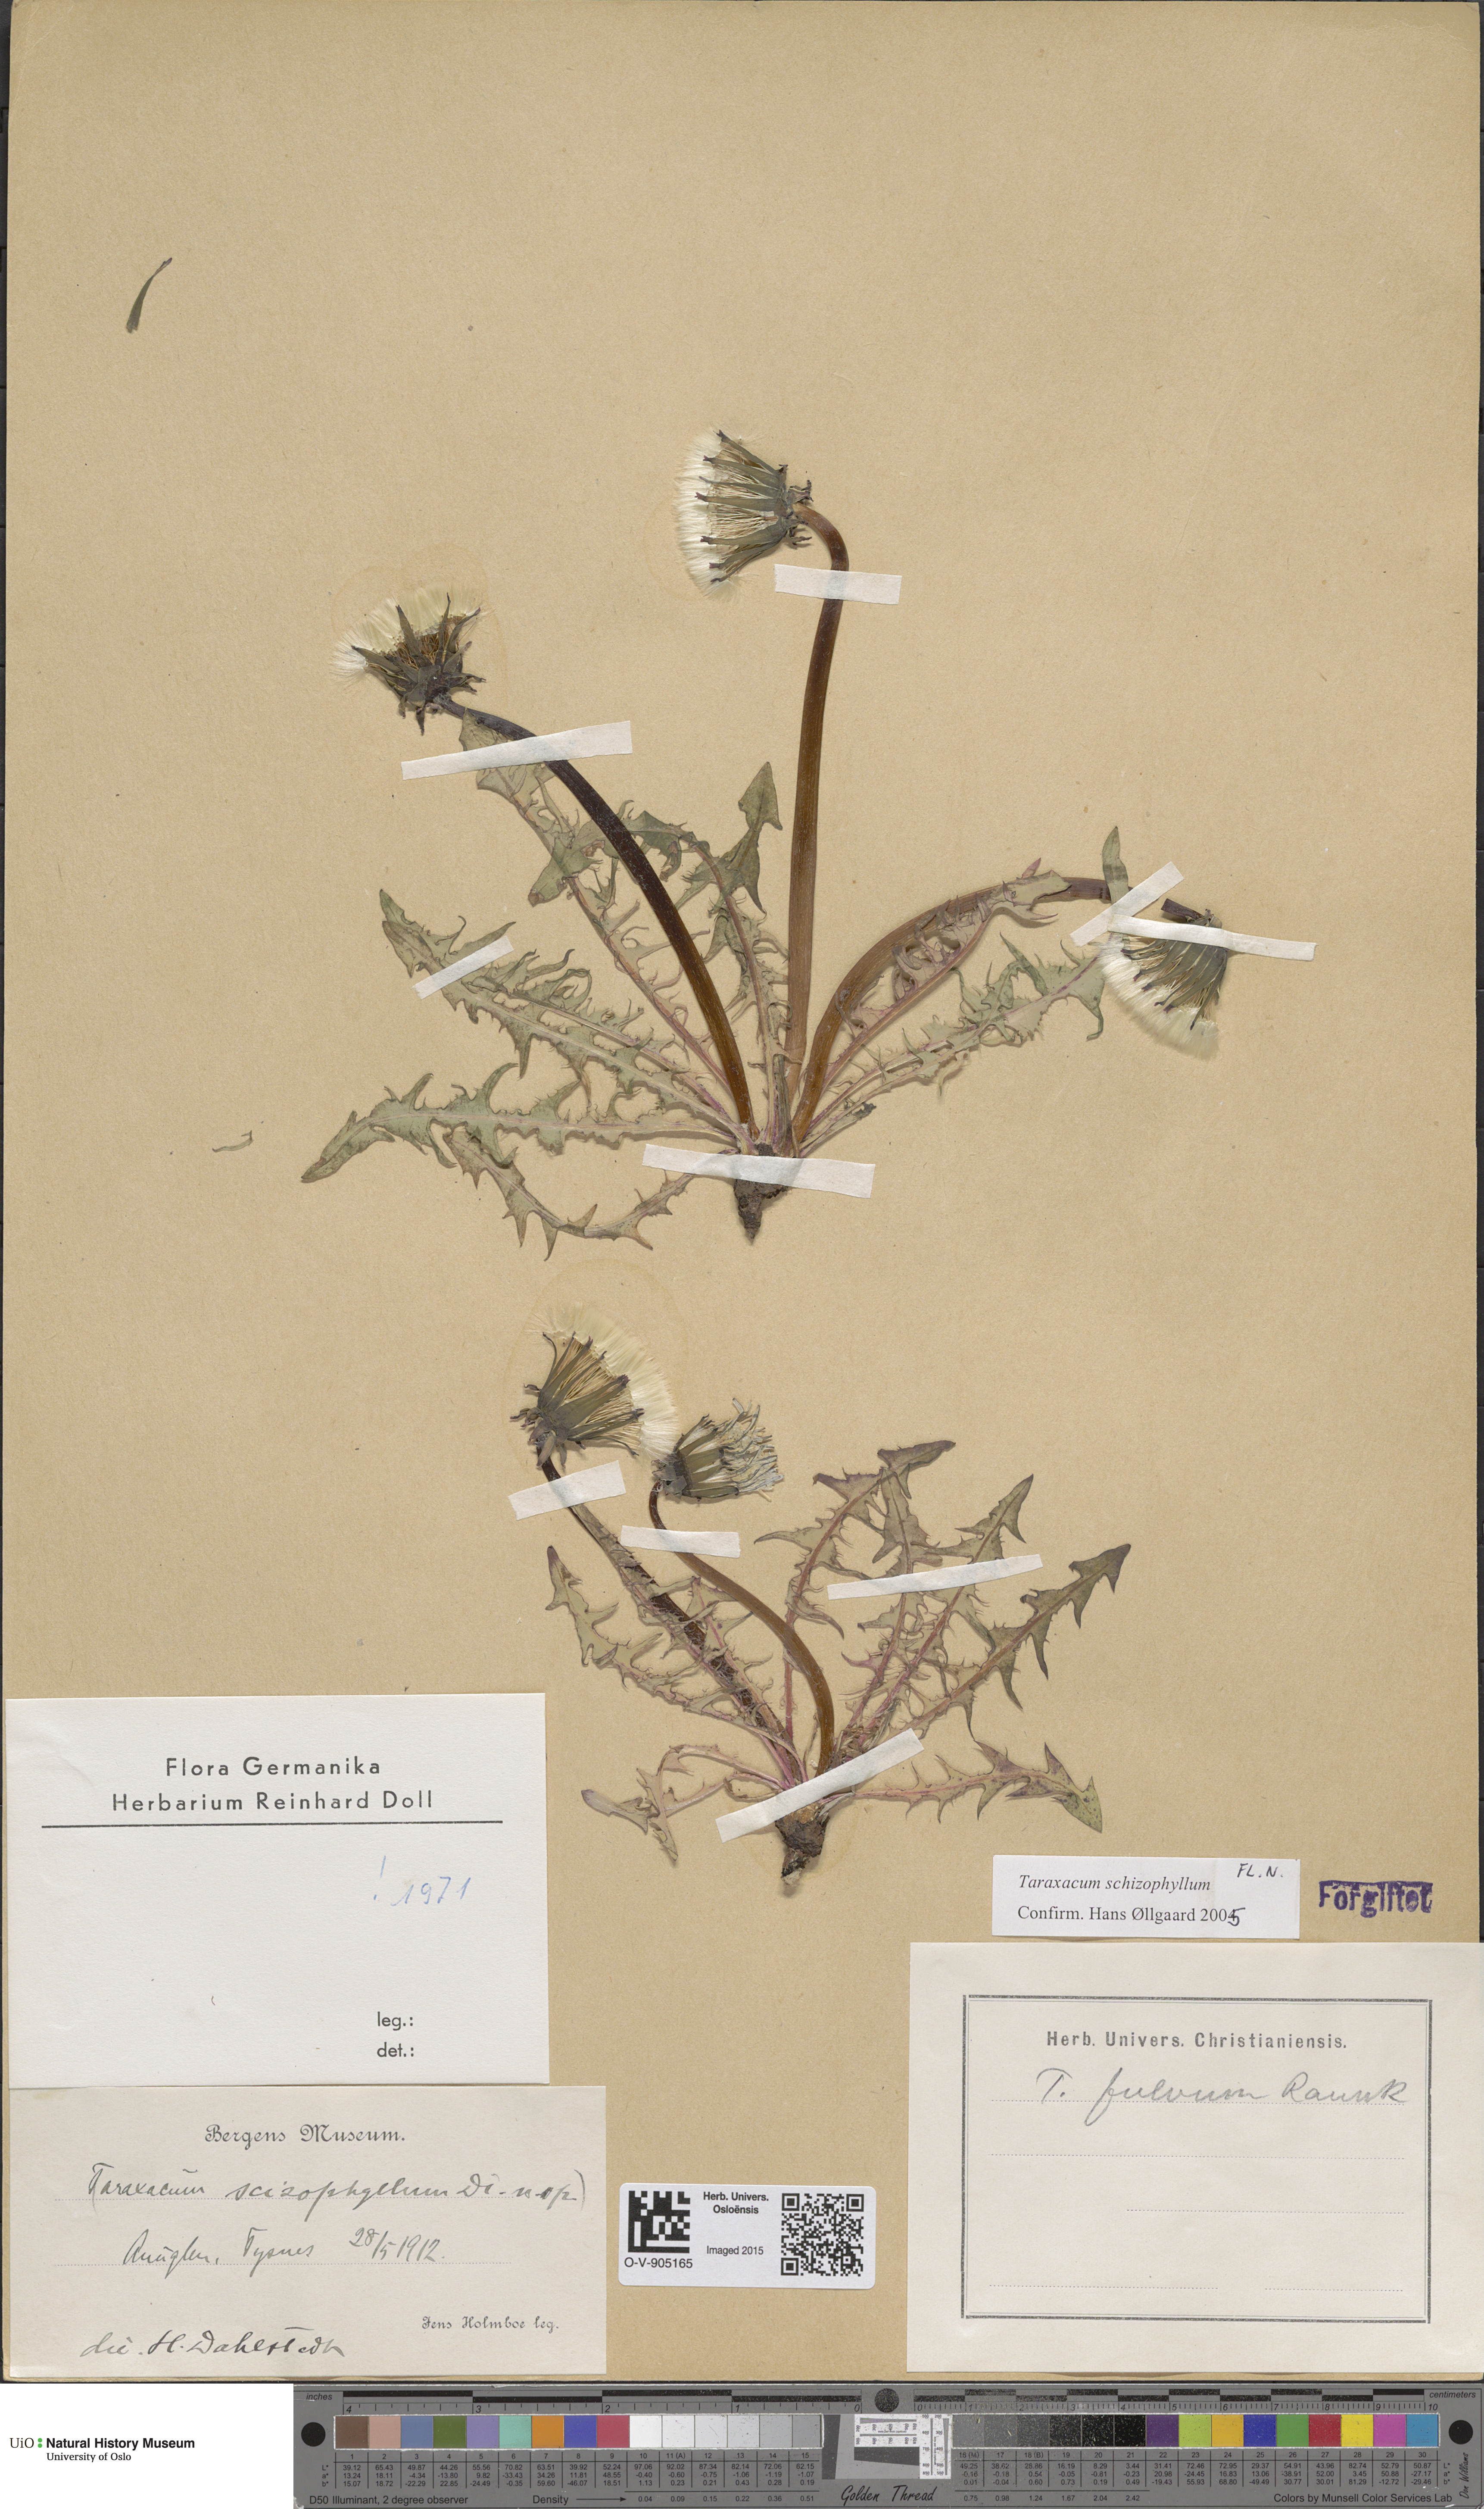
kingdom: Plantae
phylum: Tracheophyta
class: Magnoliopsida
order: Asterales
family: Asteraceae
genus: Taraxacum
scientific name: Taraxacum fulvum
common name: Cinnamon-fruited dandelion
